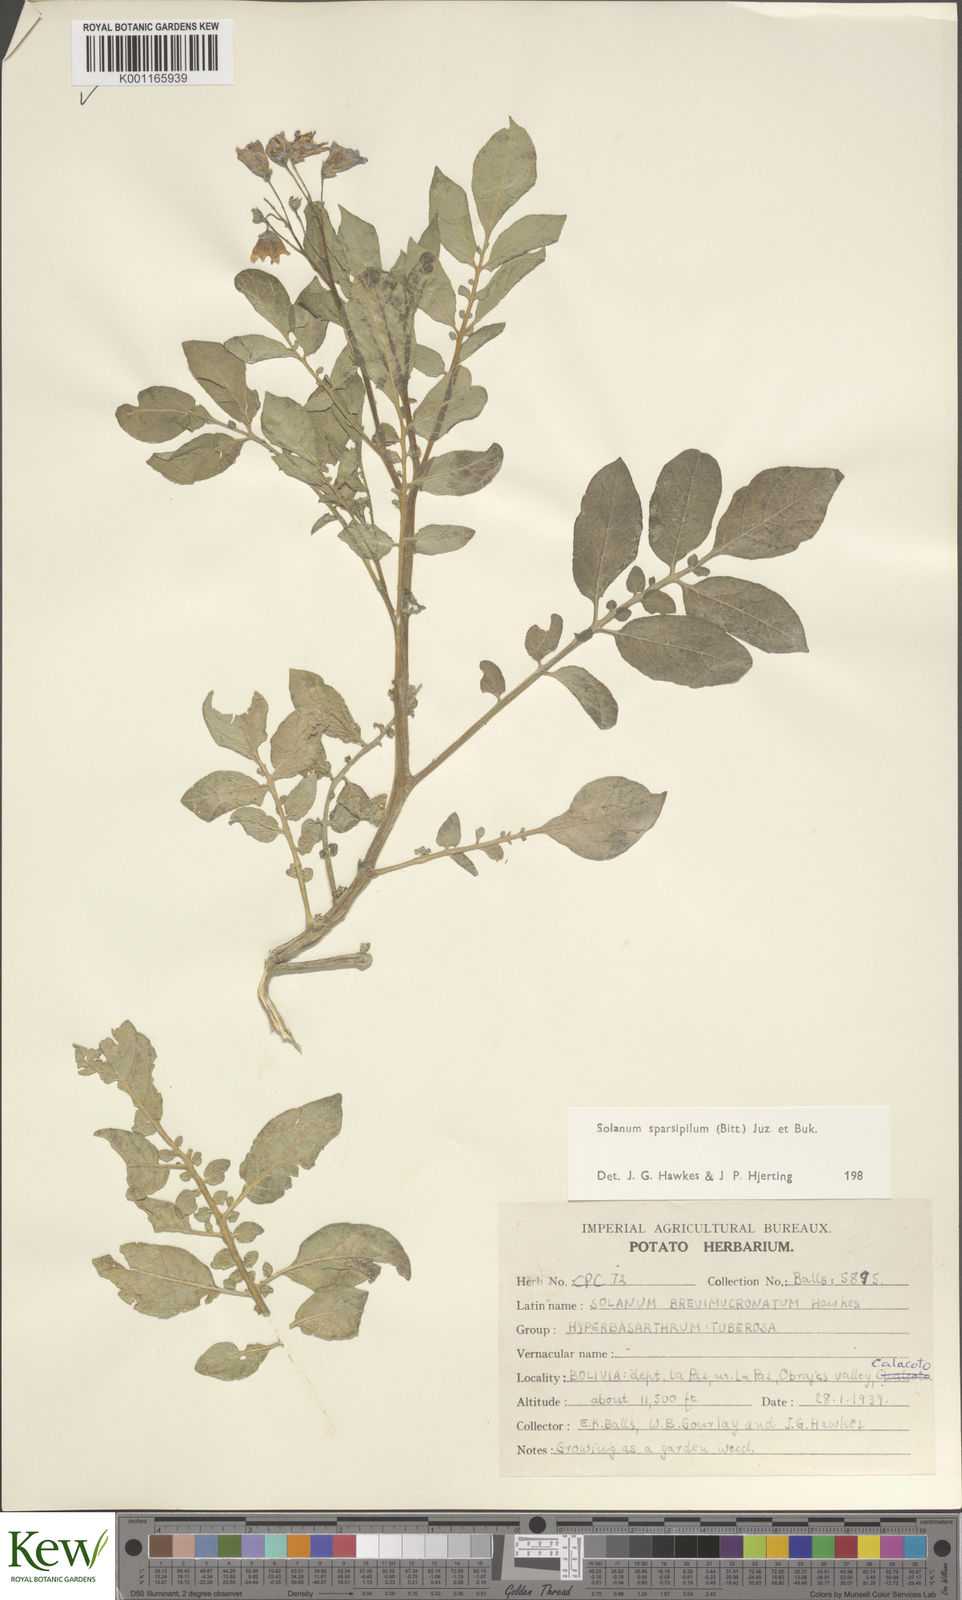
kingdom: Plantae
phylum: Tracheophyta
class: Magnoliopsida
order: Solanales
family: Solanaceae
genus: Solanum
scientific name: Solanum brevicaule
